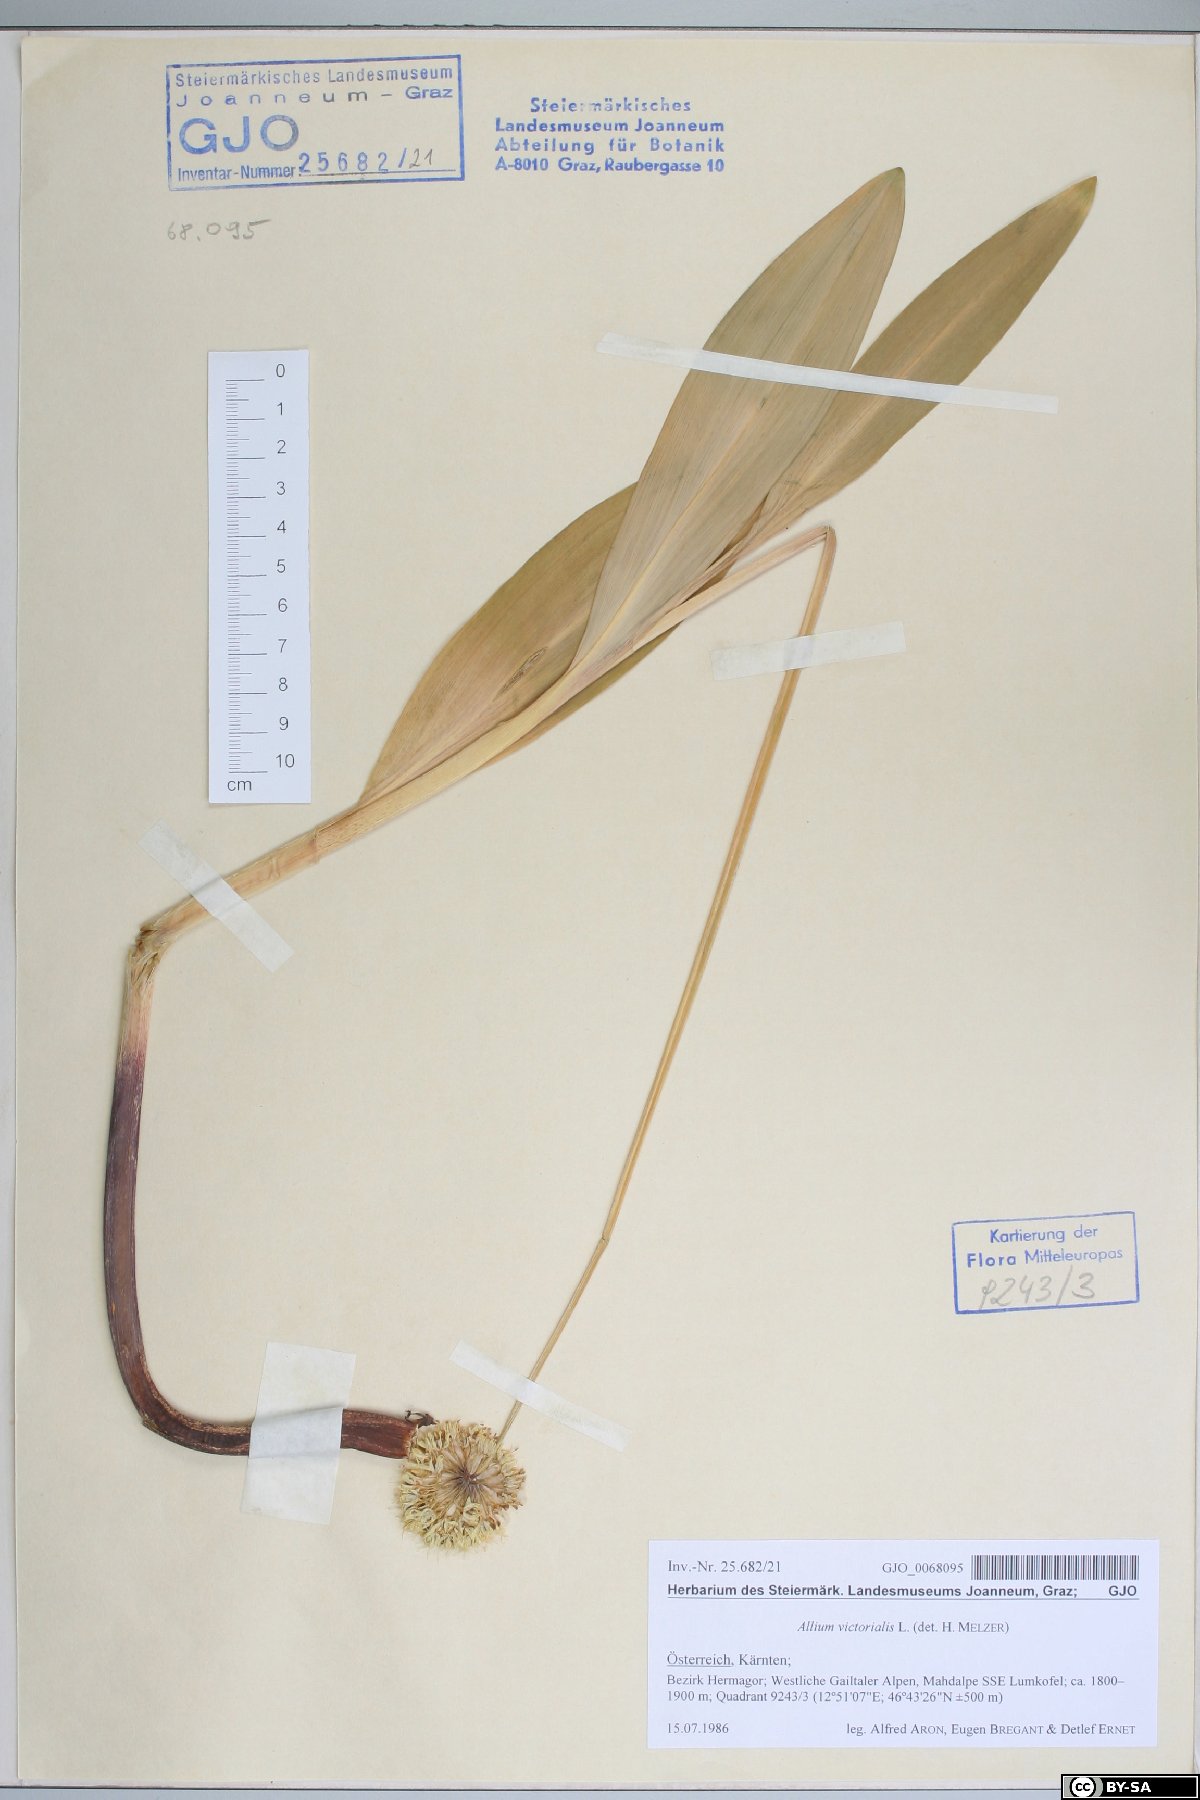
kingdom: Plantae
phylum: Tracheophyta
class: Liliopsida
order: Asparagales
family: Amaryllidaceae
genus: Allium
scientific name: Allium victorialis
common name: Alpine leek
